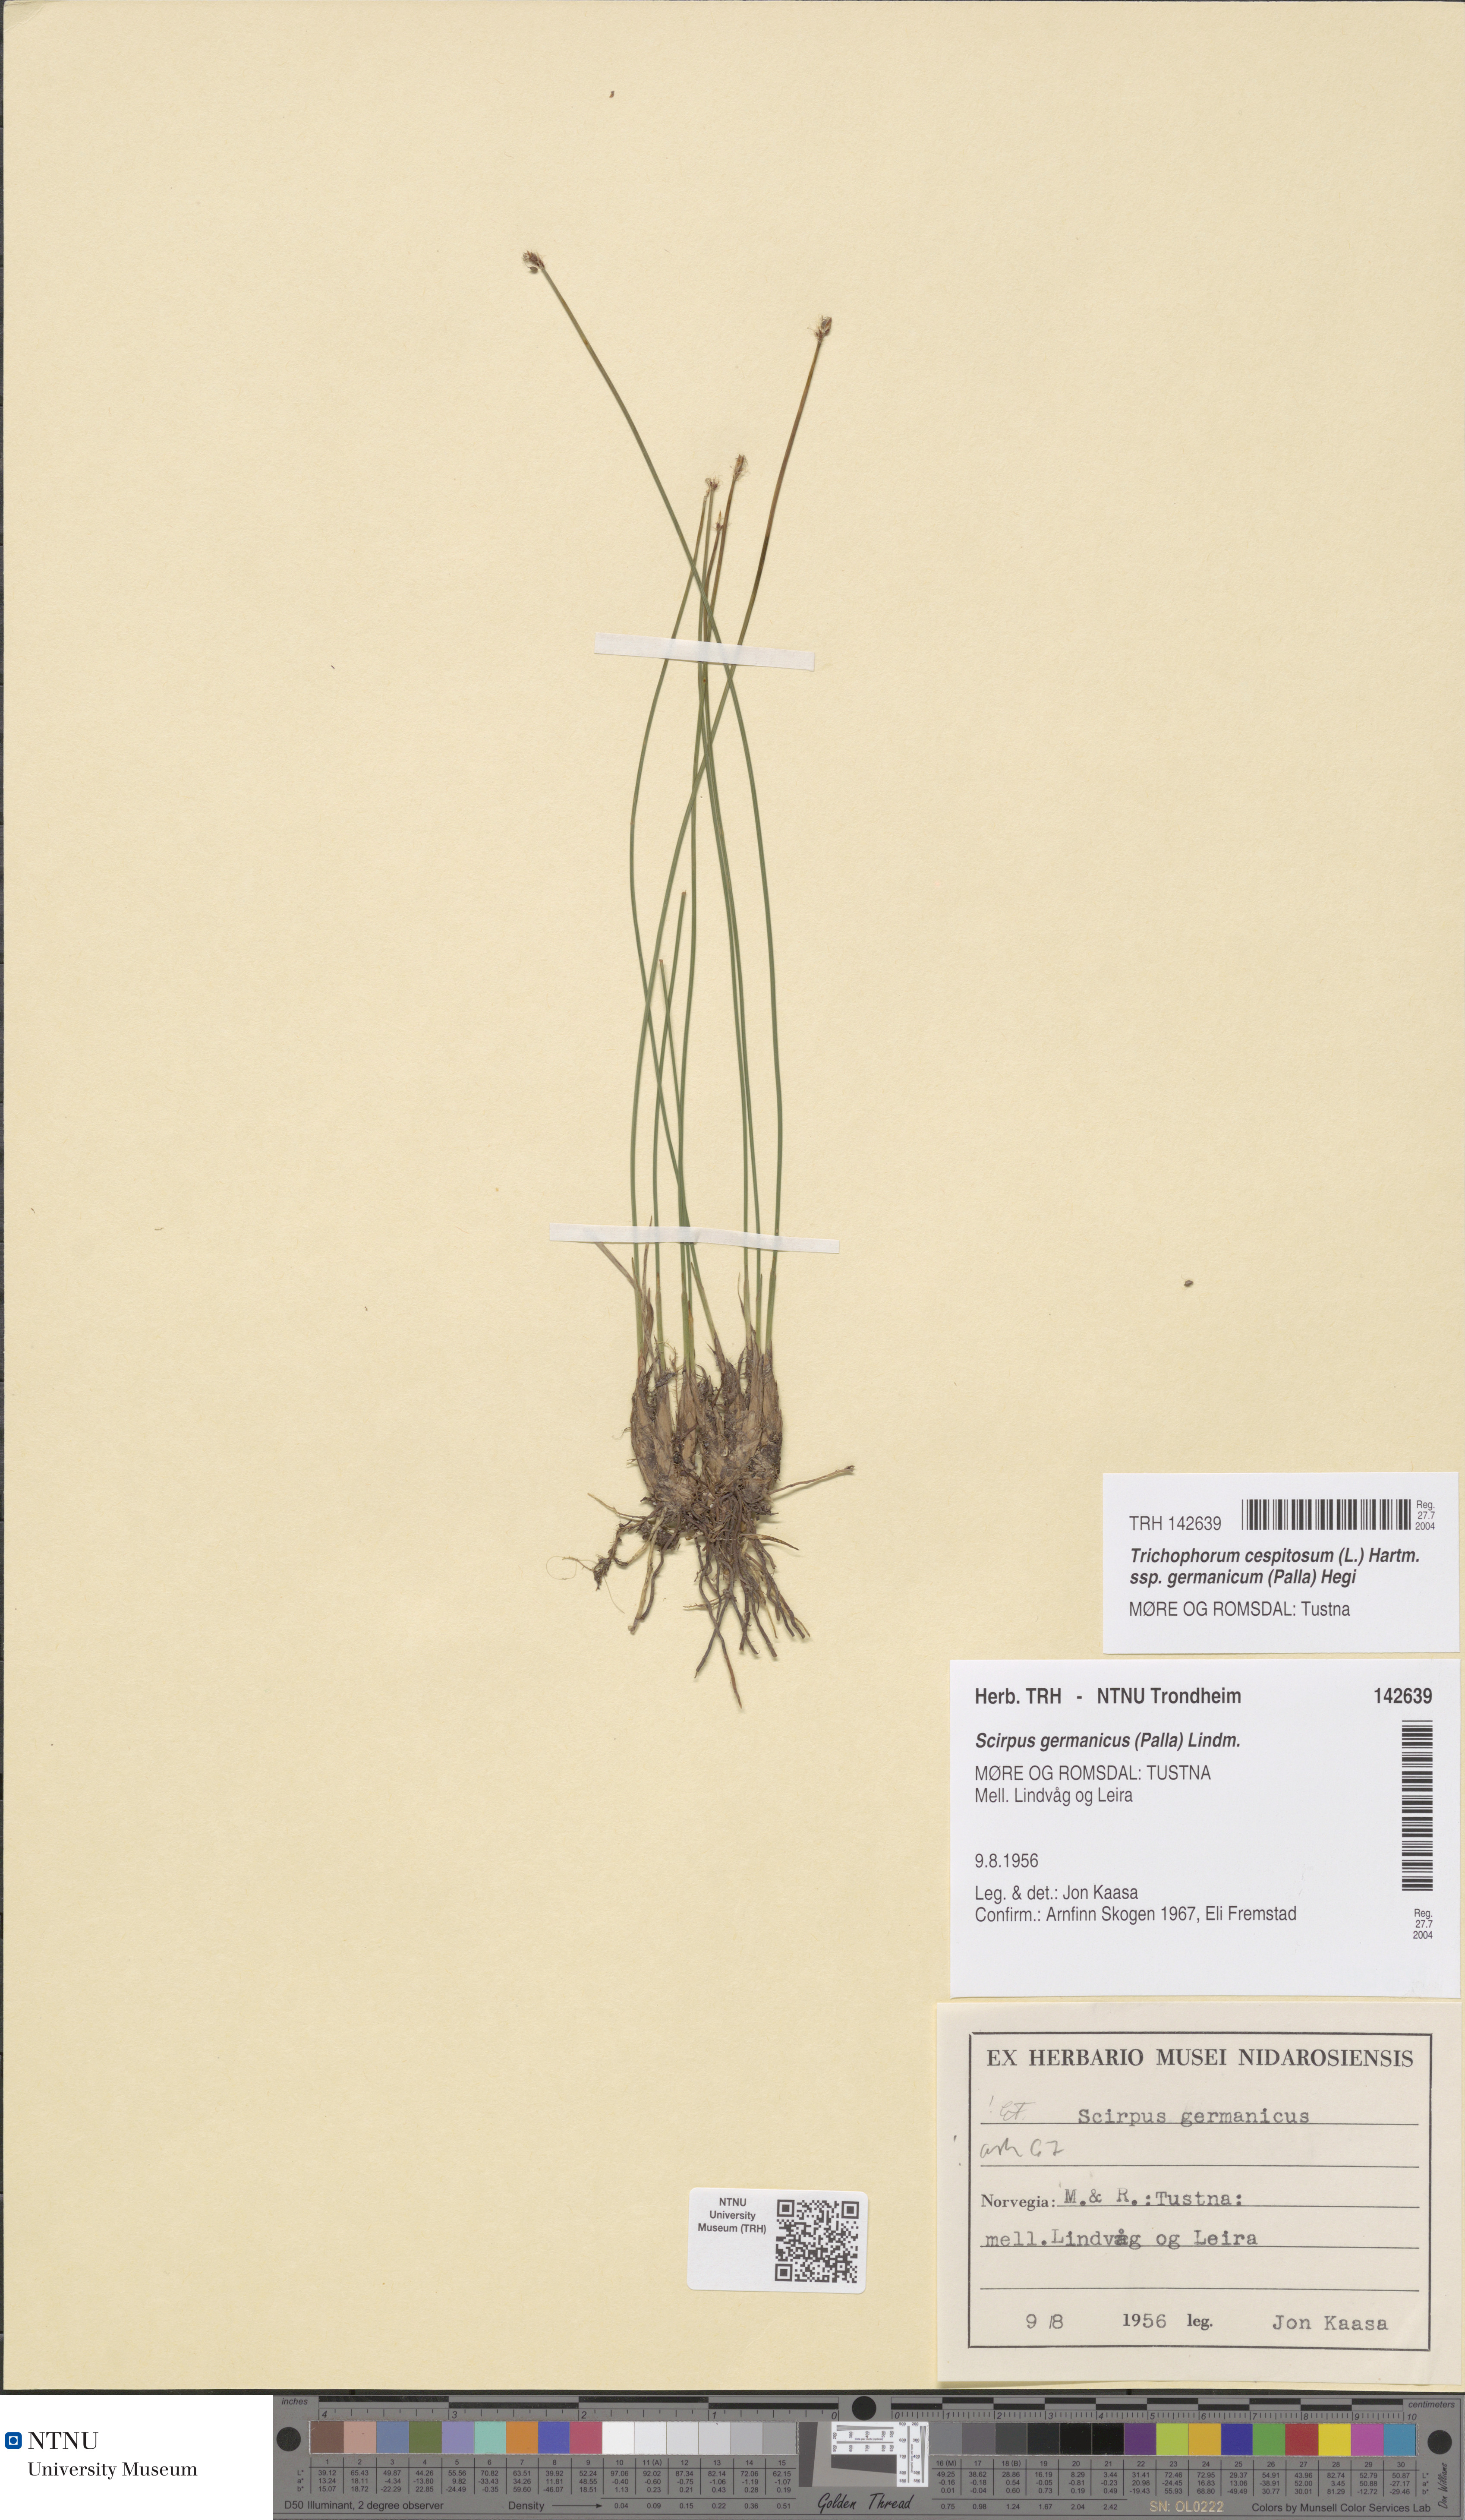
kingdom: Plantae
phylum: Tracheophyta
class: Liliopsida
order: Poales
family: Cyperaceae
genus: Trichophorum
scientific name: Trichophorum cespitosum
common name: Cespitose bulrush
